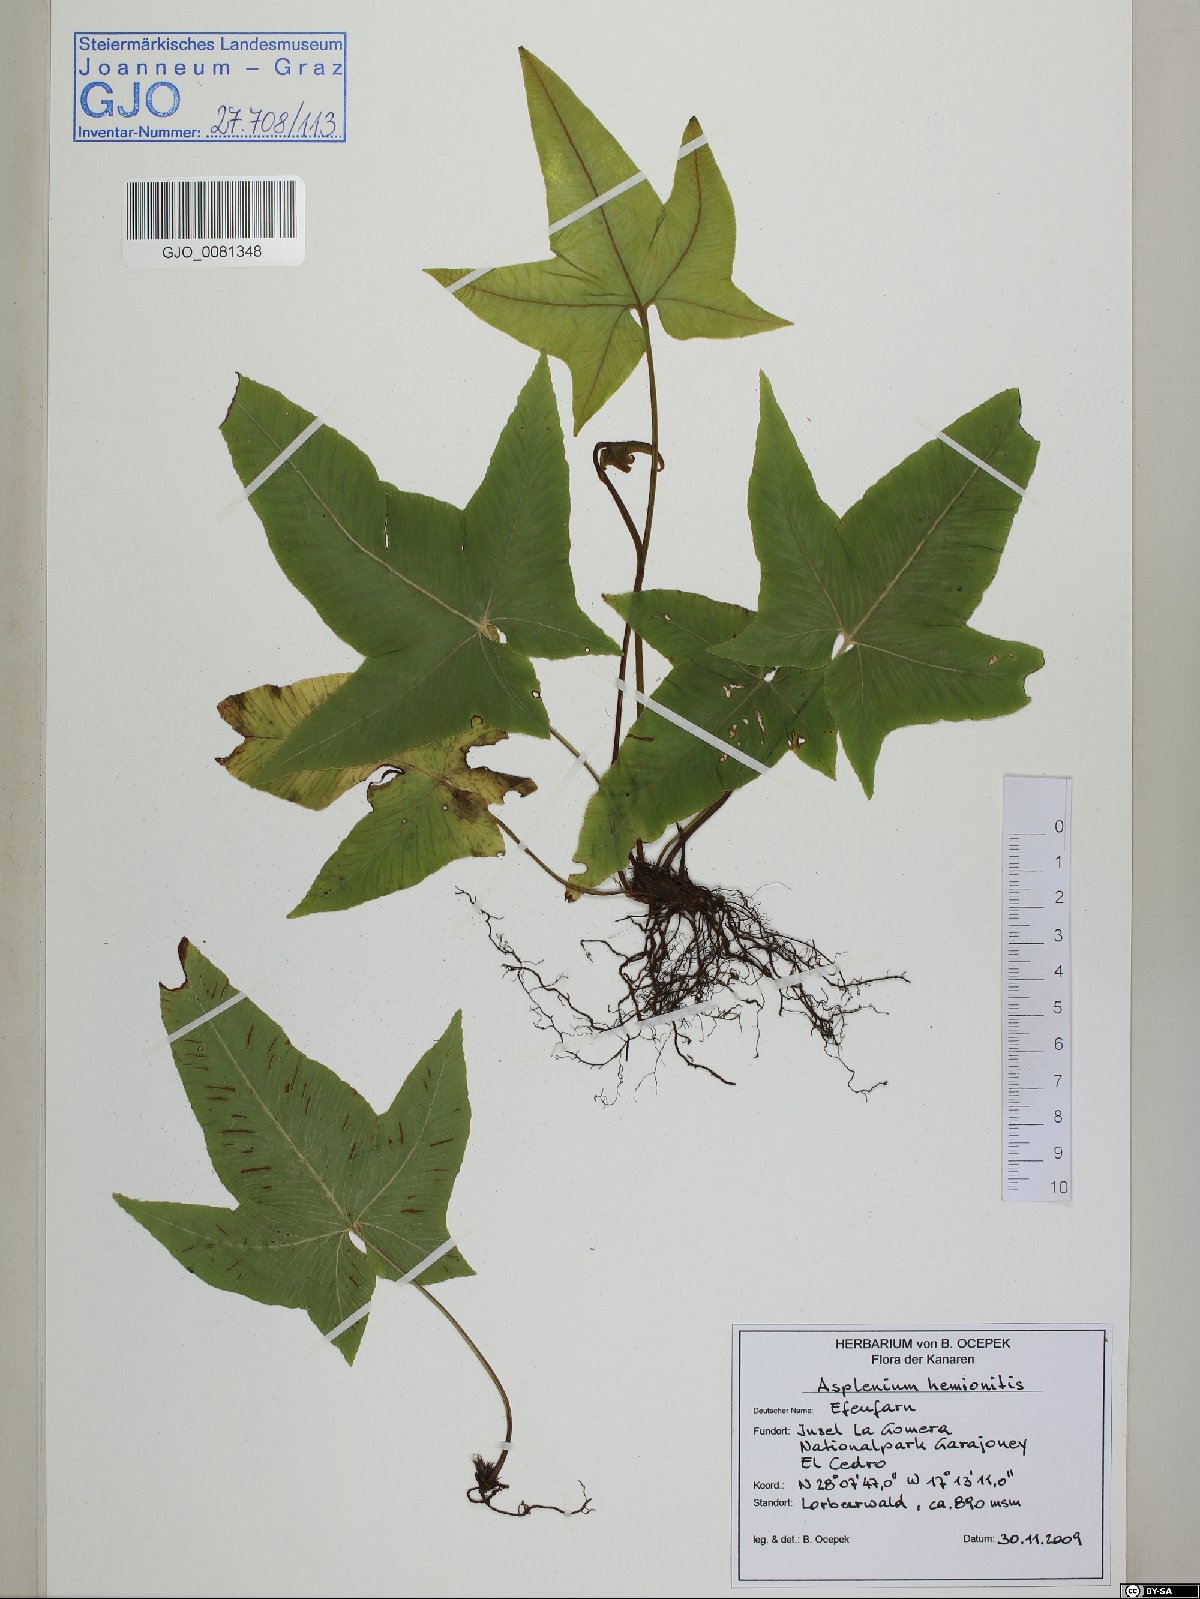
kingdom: Plantae
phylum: Tracheophyta
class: Polypodiopsida
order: Polypodiales
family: Aspleniaceae
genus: Asplenium
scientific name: Asplenium hemionitis
